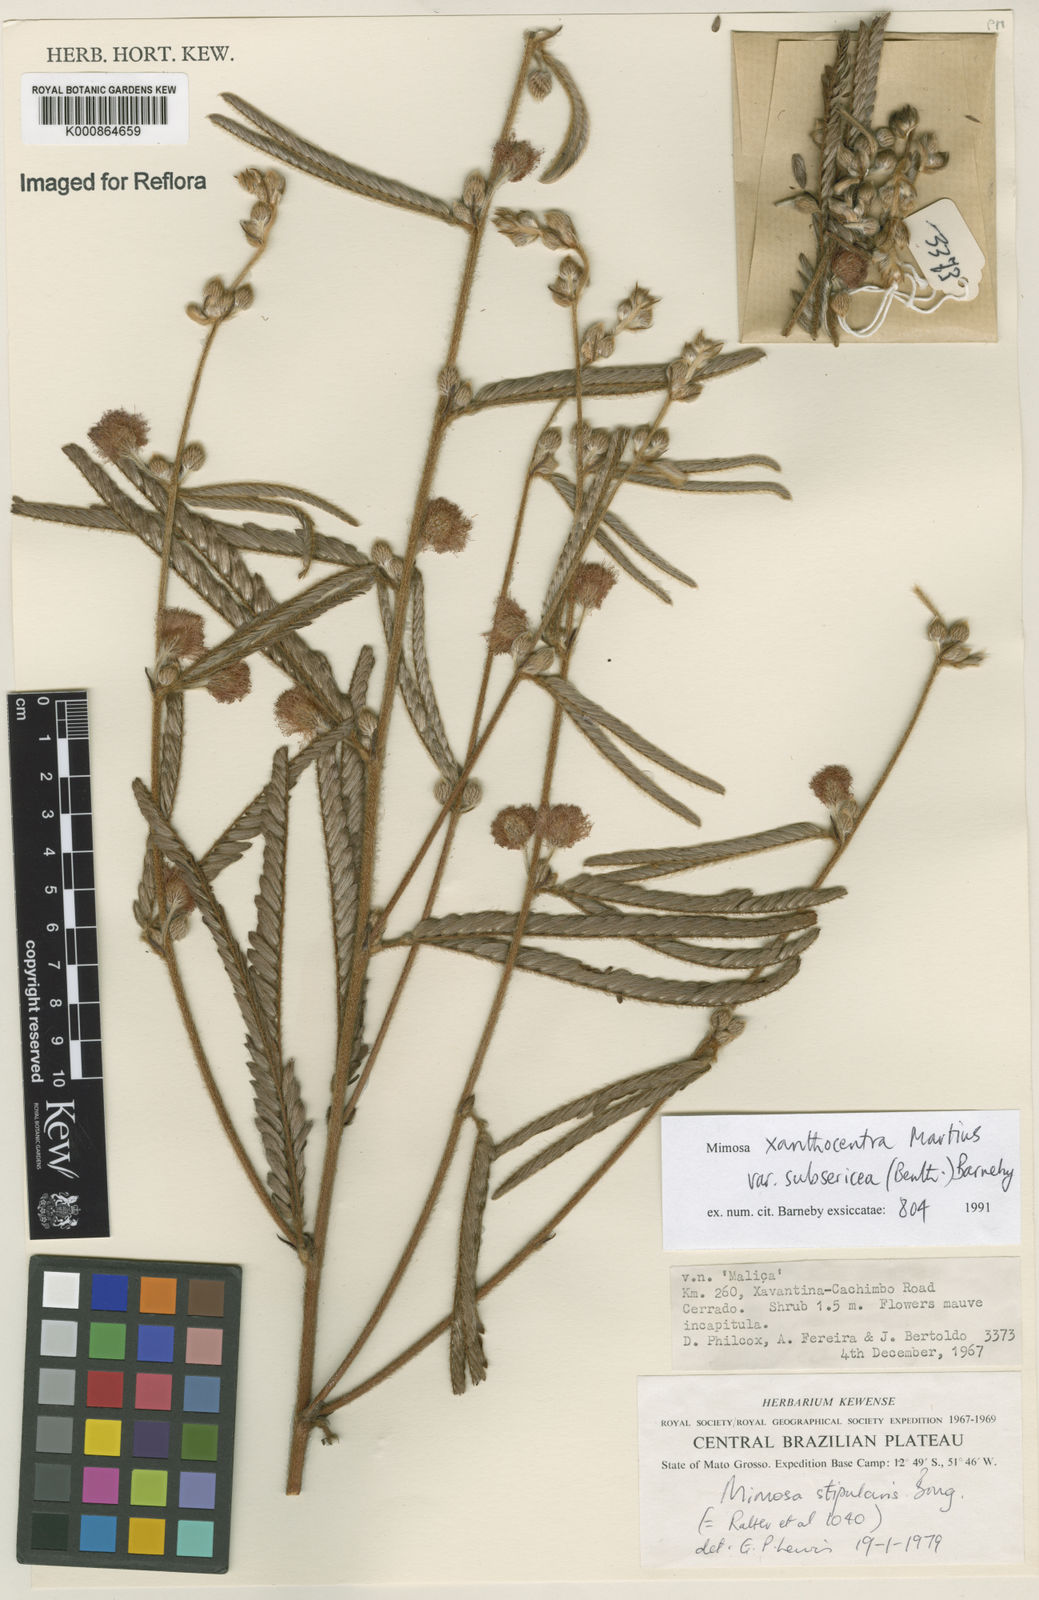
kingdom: Plantae
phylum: Tracheophyta
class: Magnoliopsida
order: Fabales
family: Fabaceae
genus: Mimosa
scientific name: Mimosa xanthocentra
